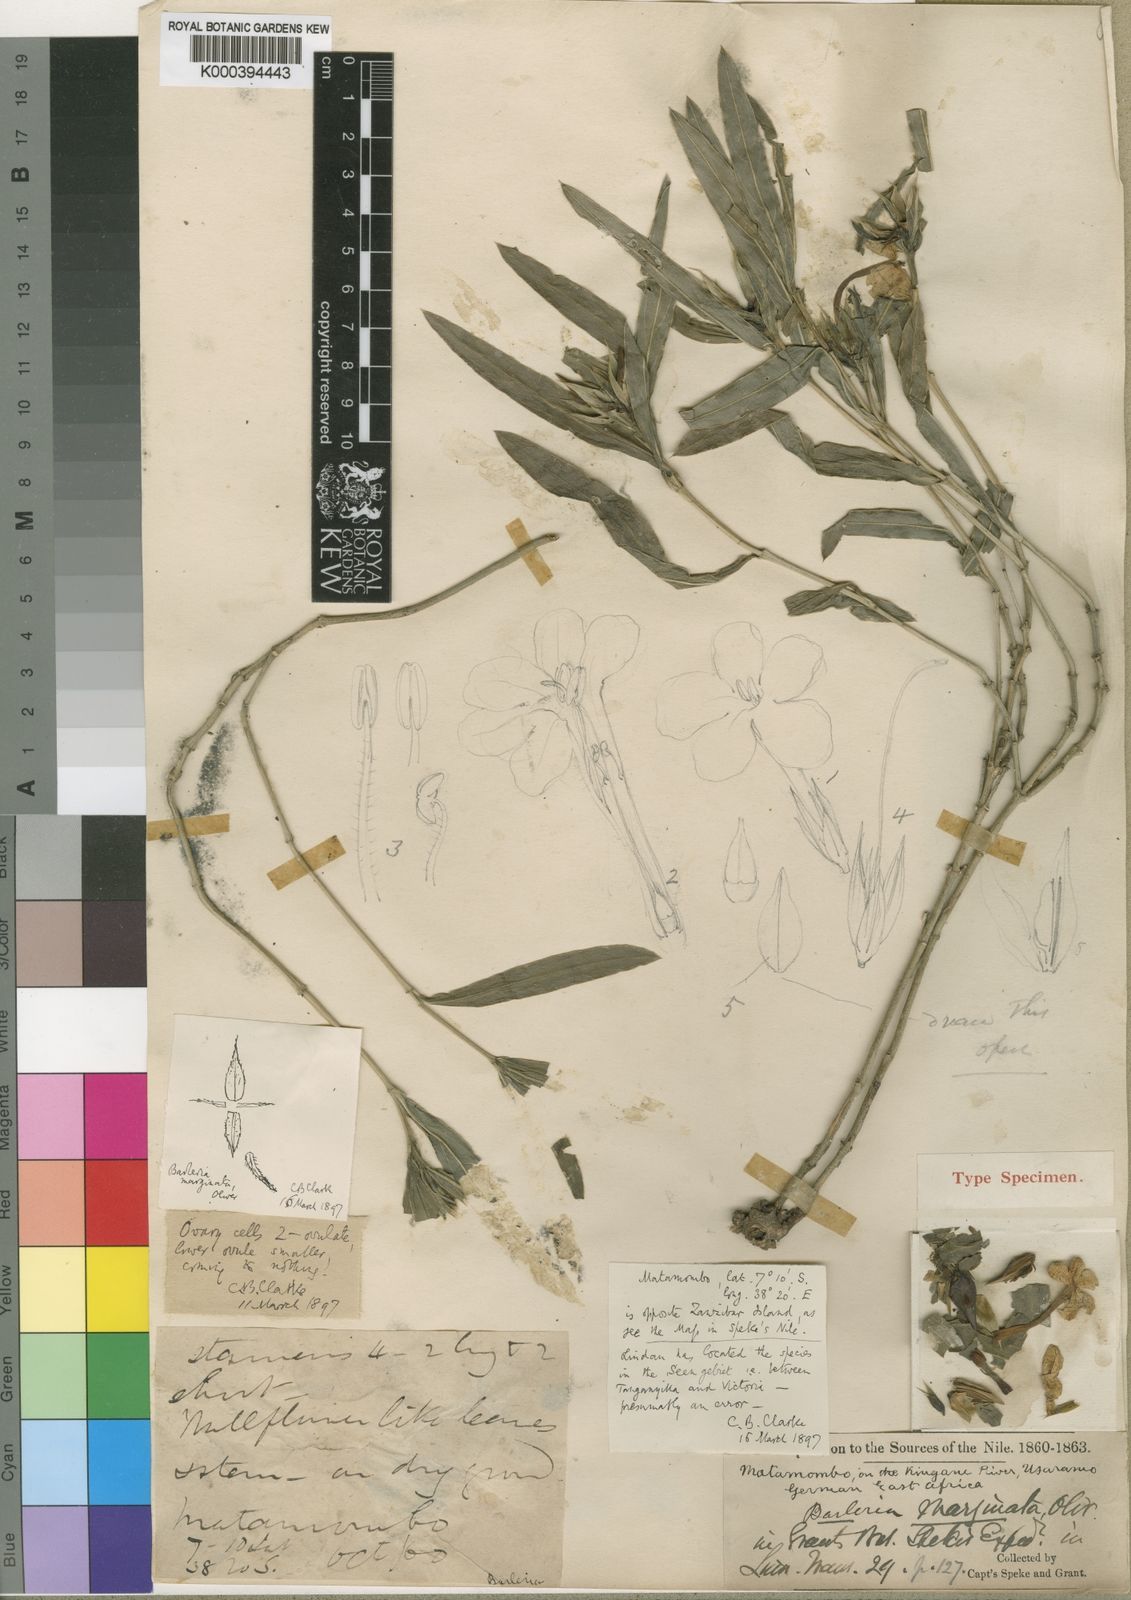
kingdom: Plantae
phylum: Tracheophyta
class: Magnoliopsida
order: Lamiales
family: Acanthaceae
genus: Barleria
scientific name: Barleria marginata
